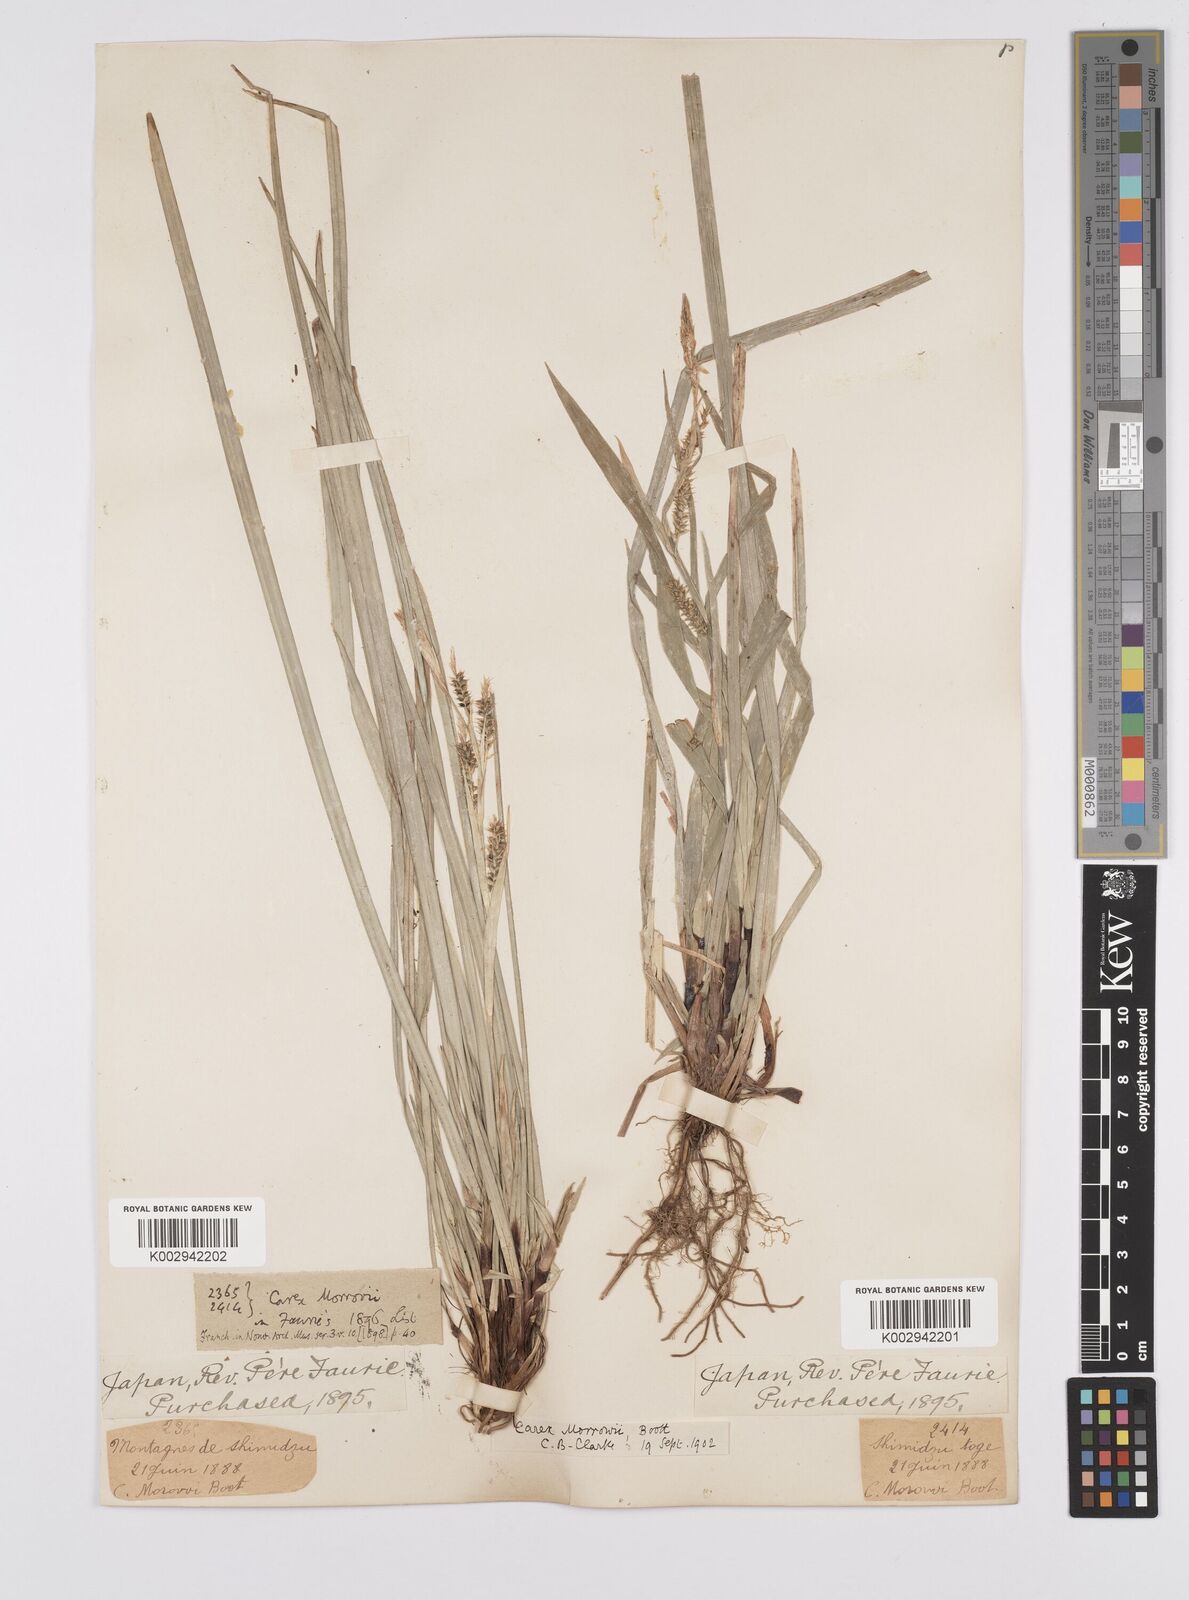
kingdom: Plantae
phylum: Tracheophyta
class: Liliopsida
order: Poales
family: Cyperaceae
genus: Carex
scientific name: Carex morrowii
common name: Japanese sedge
